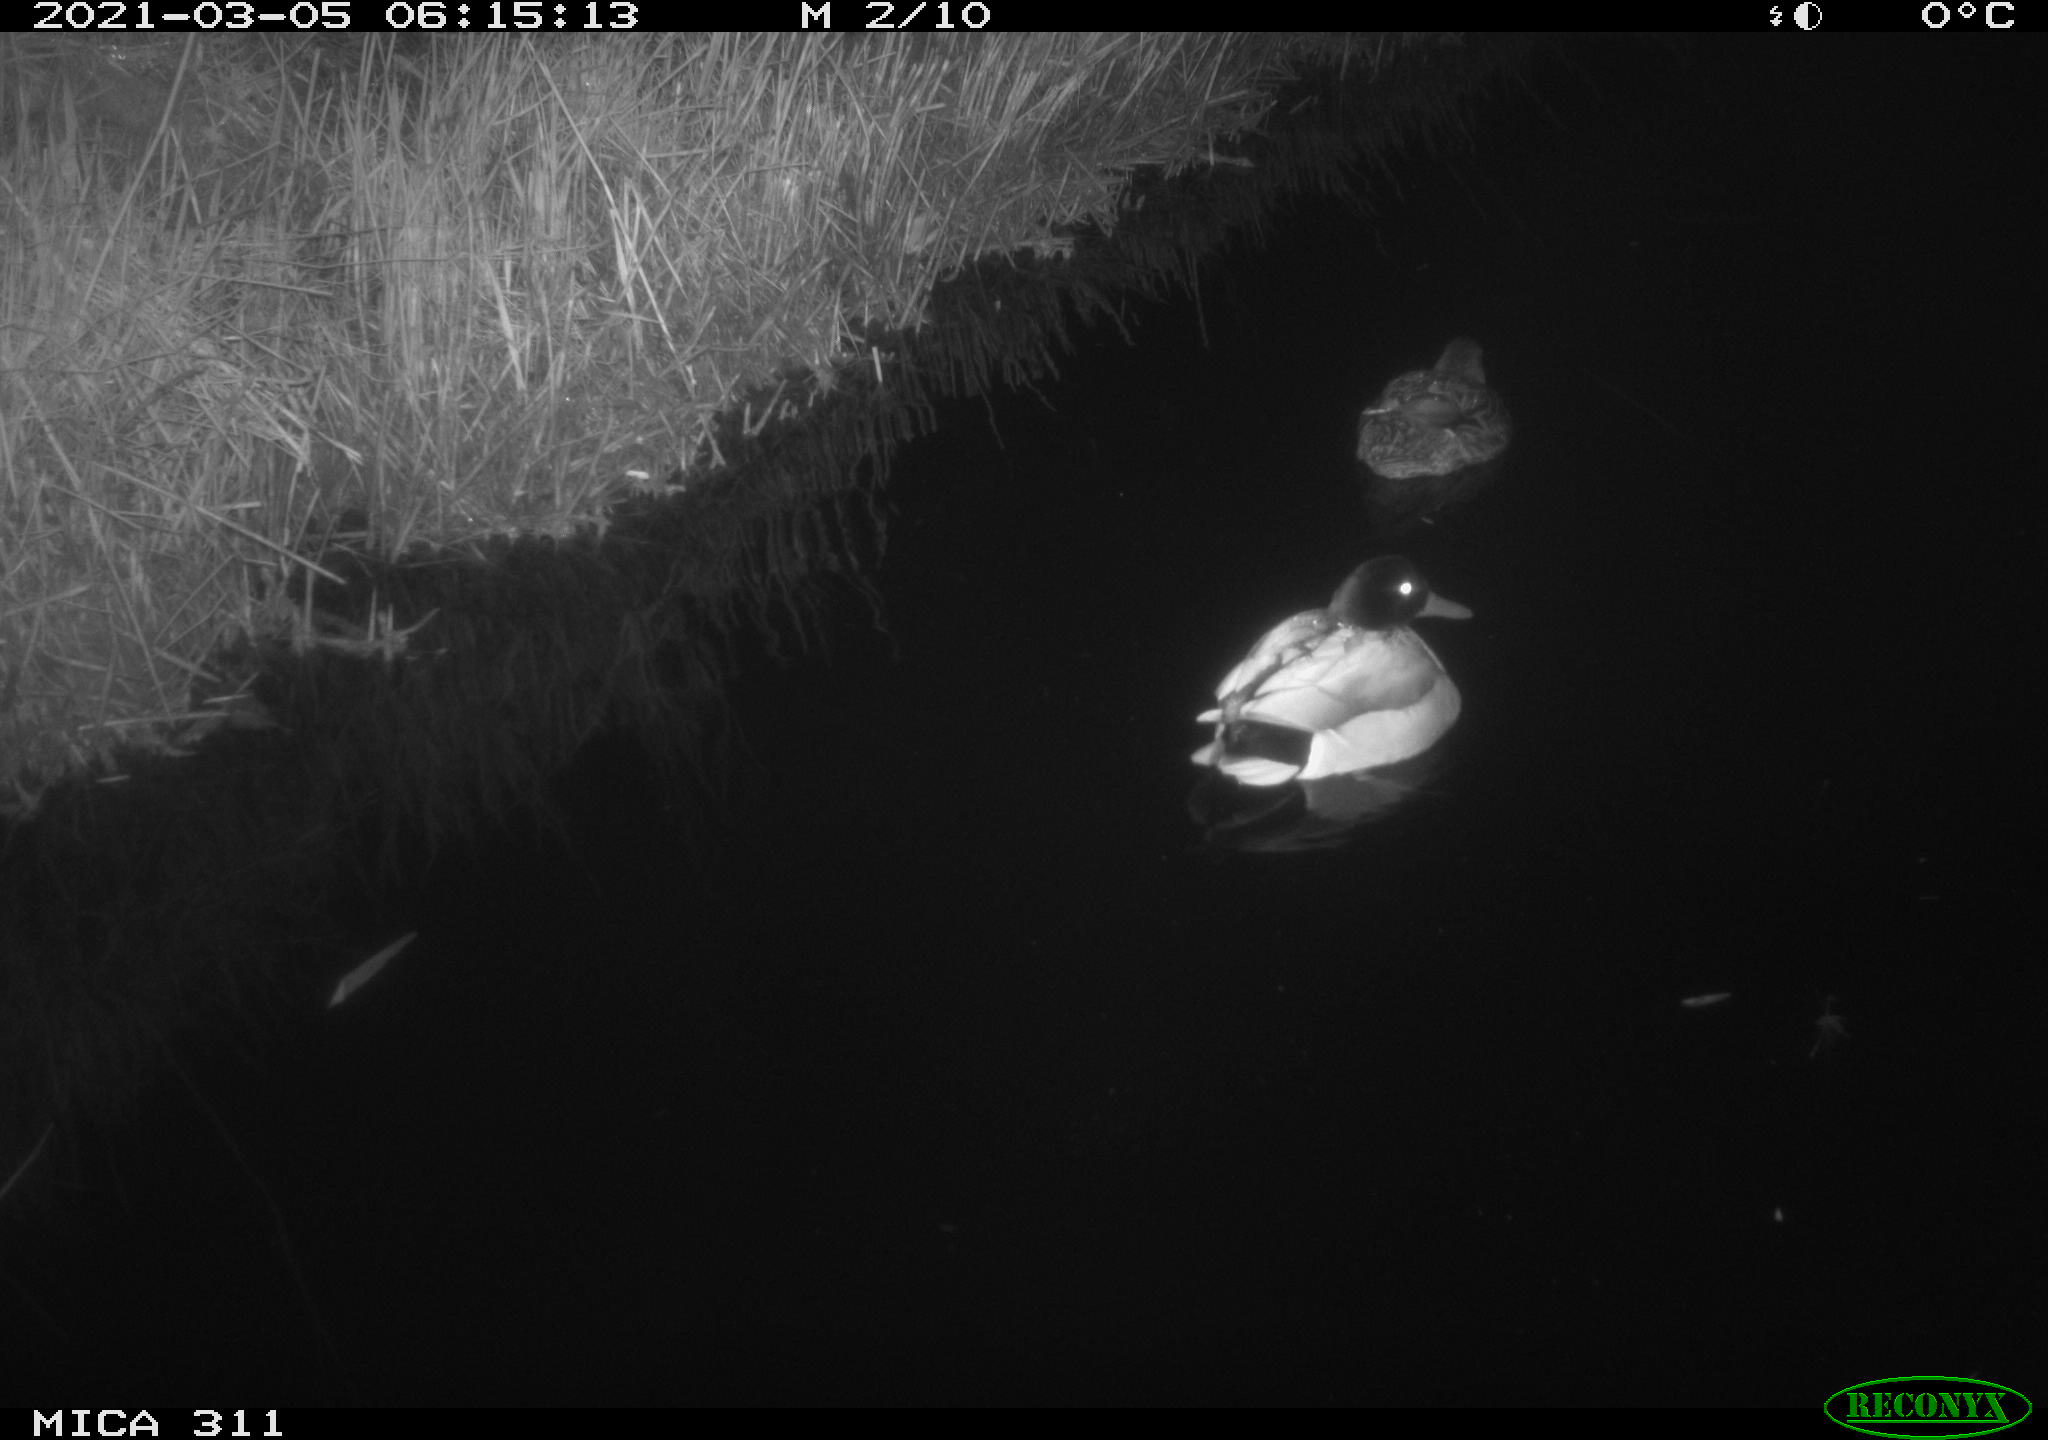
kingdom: Animalia
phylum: Chordata
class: Aves
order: Anseriformes
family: Anatidae
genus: Anas
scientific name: Anas
